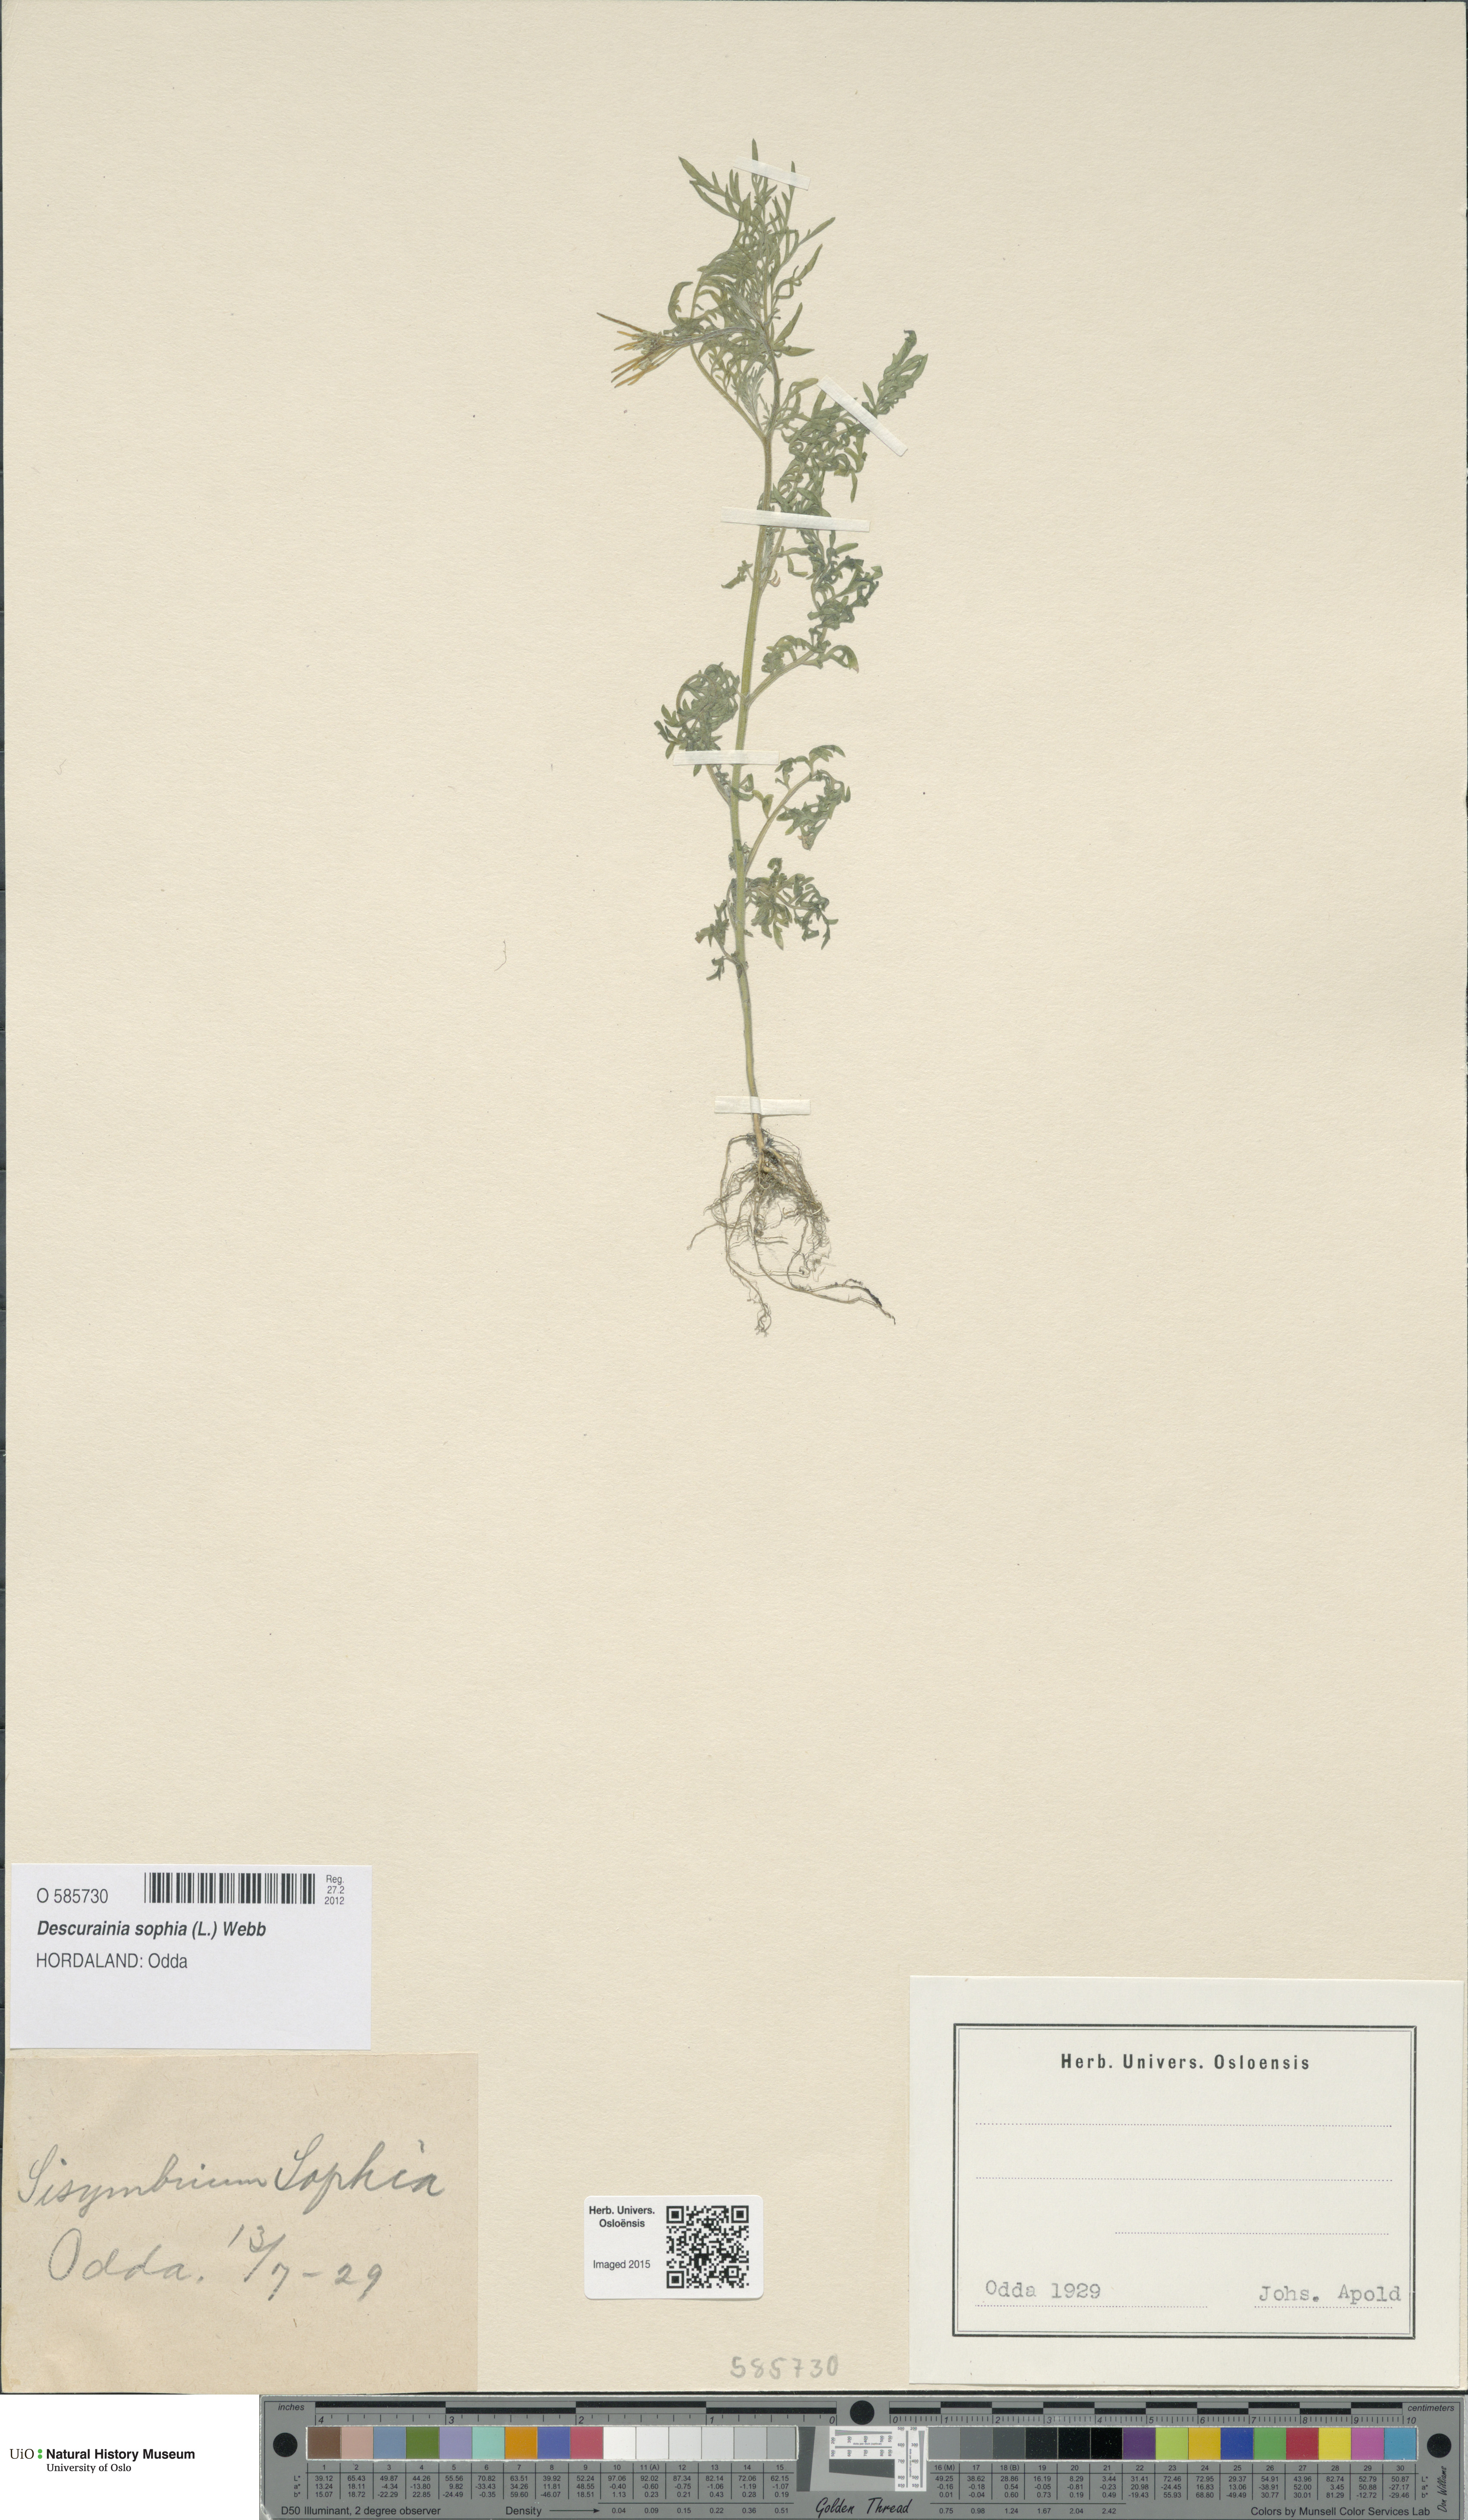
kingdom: Plantae
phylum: Tracheophyta
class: Magnoliopsida
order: Brassicales
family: Brassicaceae
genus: Descurainia
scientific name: Descurainia sophia
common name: Flixweed
